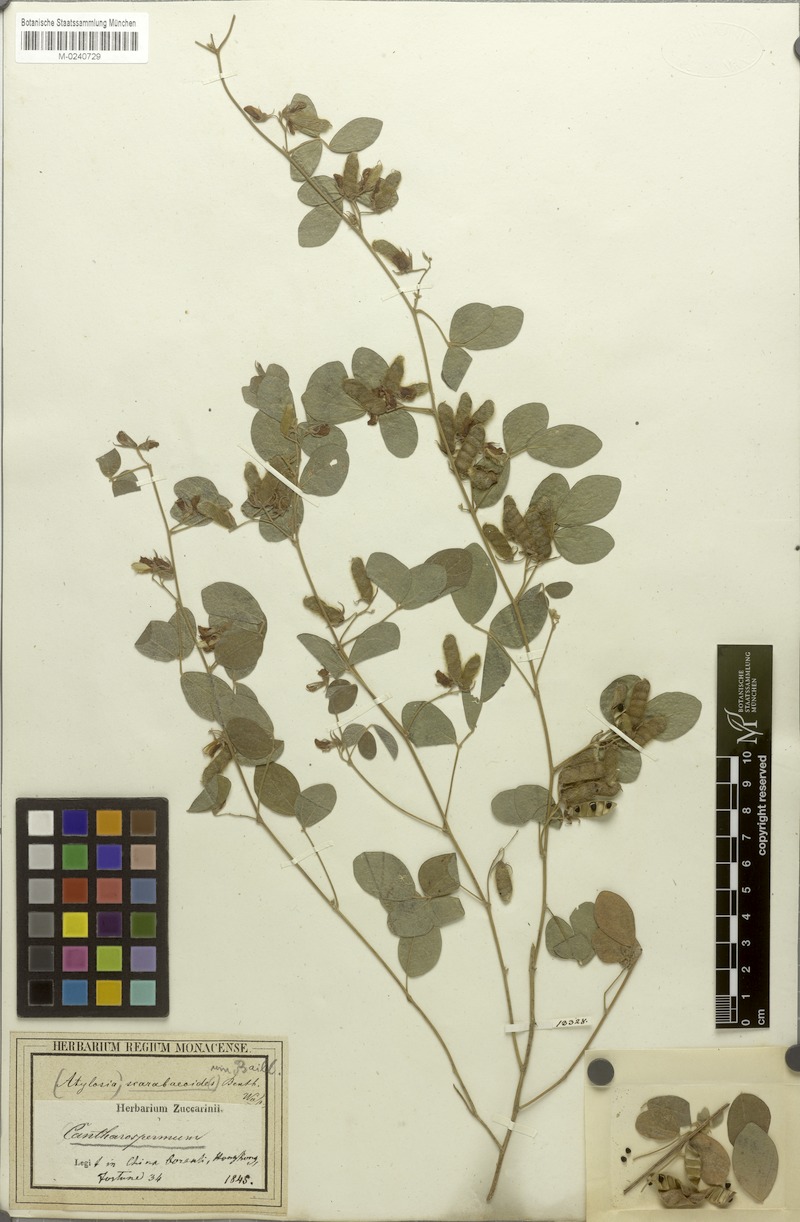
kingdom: Plantae
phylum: Tracheophyta
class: Magnoliopsida
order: Fabales
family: Fabaceae
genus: Cajanus
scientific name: Cajanus scarabaeoides
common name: Showy pigeonpea
